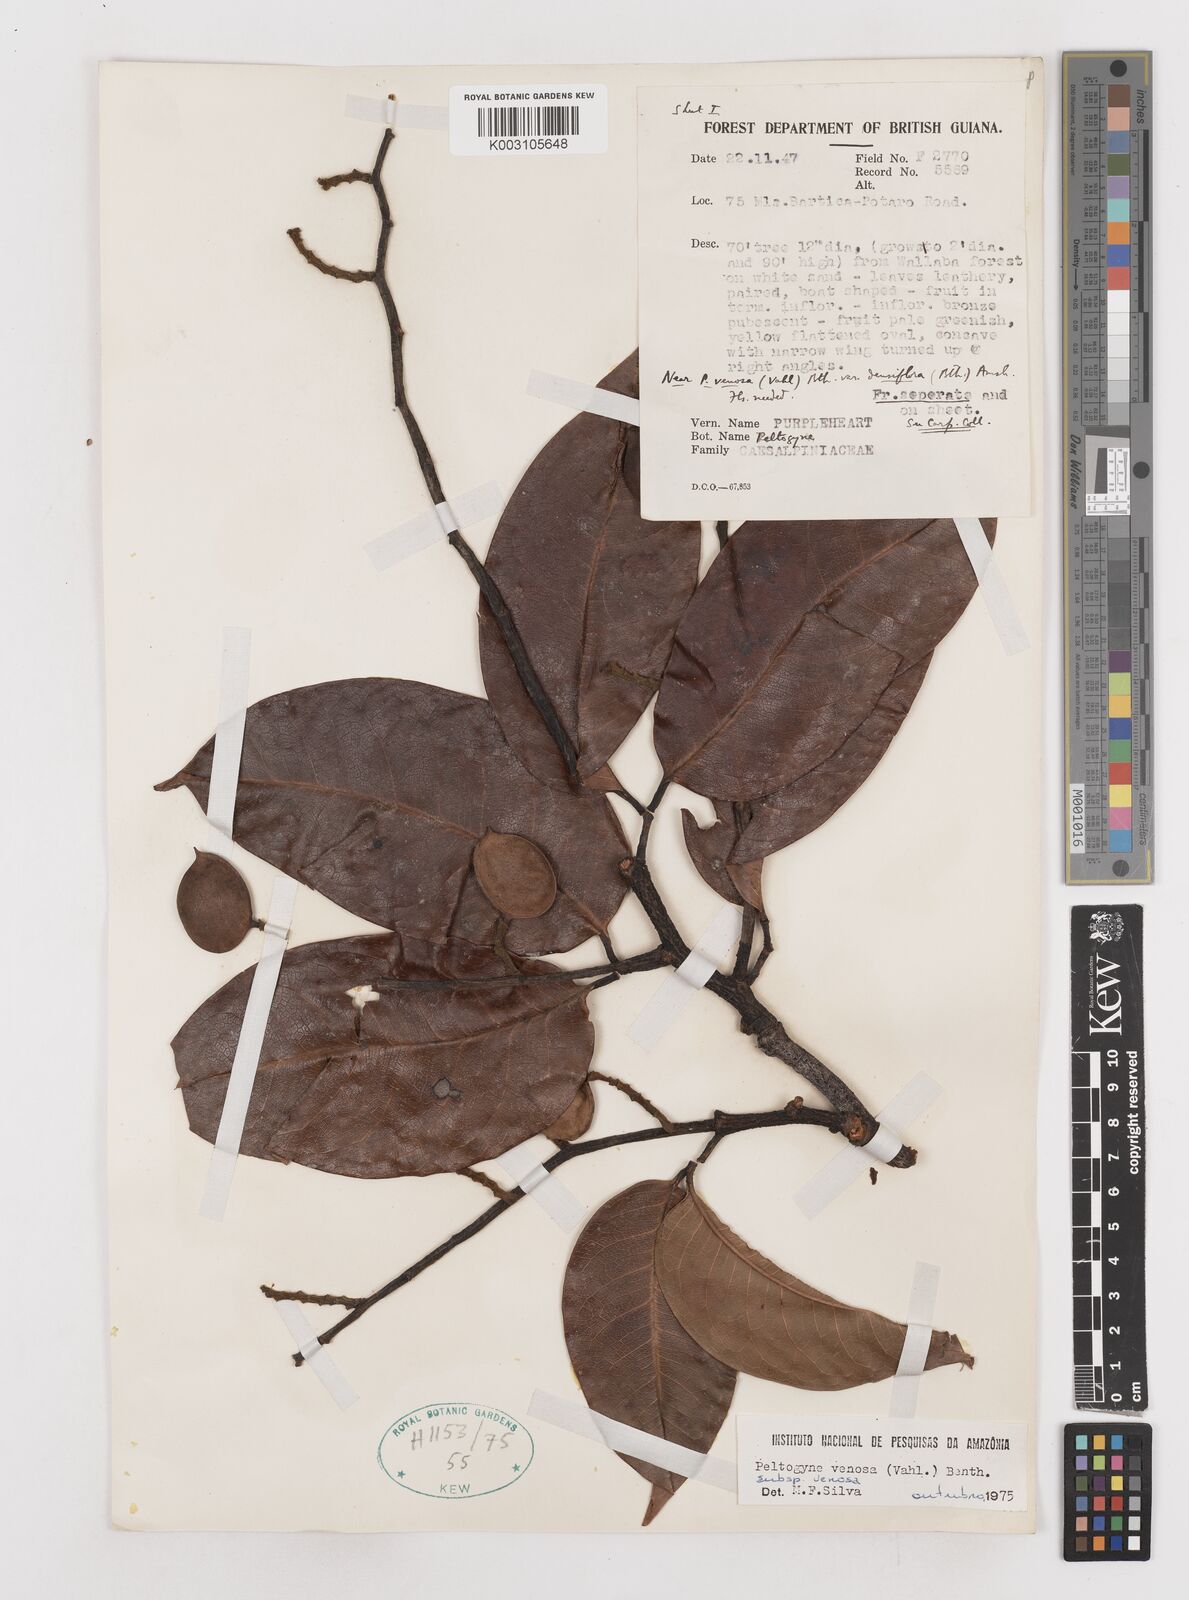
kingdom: Plantae
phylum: Tracheophyta
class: Magnoliopsida
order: Fabales
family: Fabaceae
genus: Peltogyne
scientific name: Peltogyne venosa
